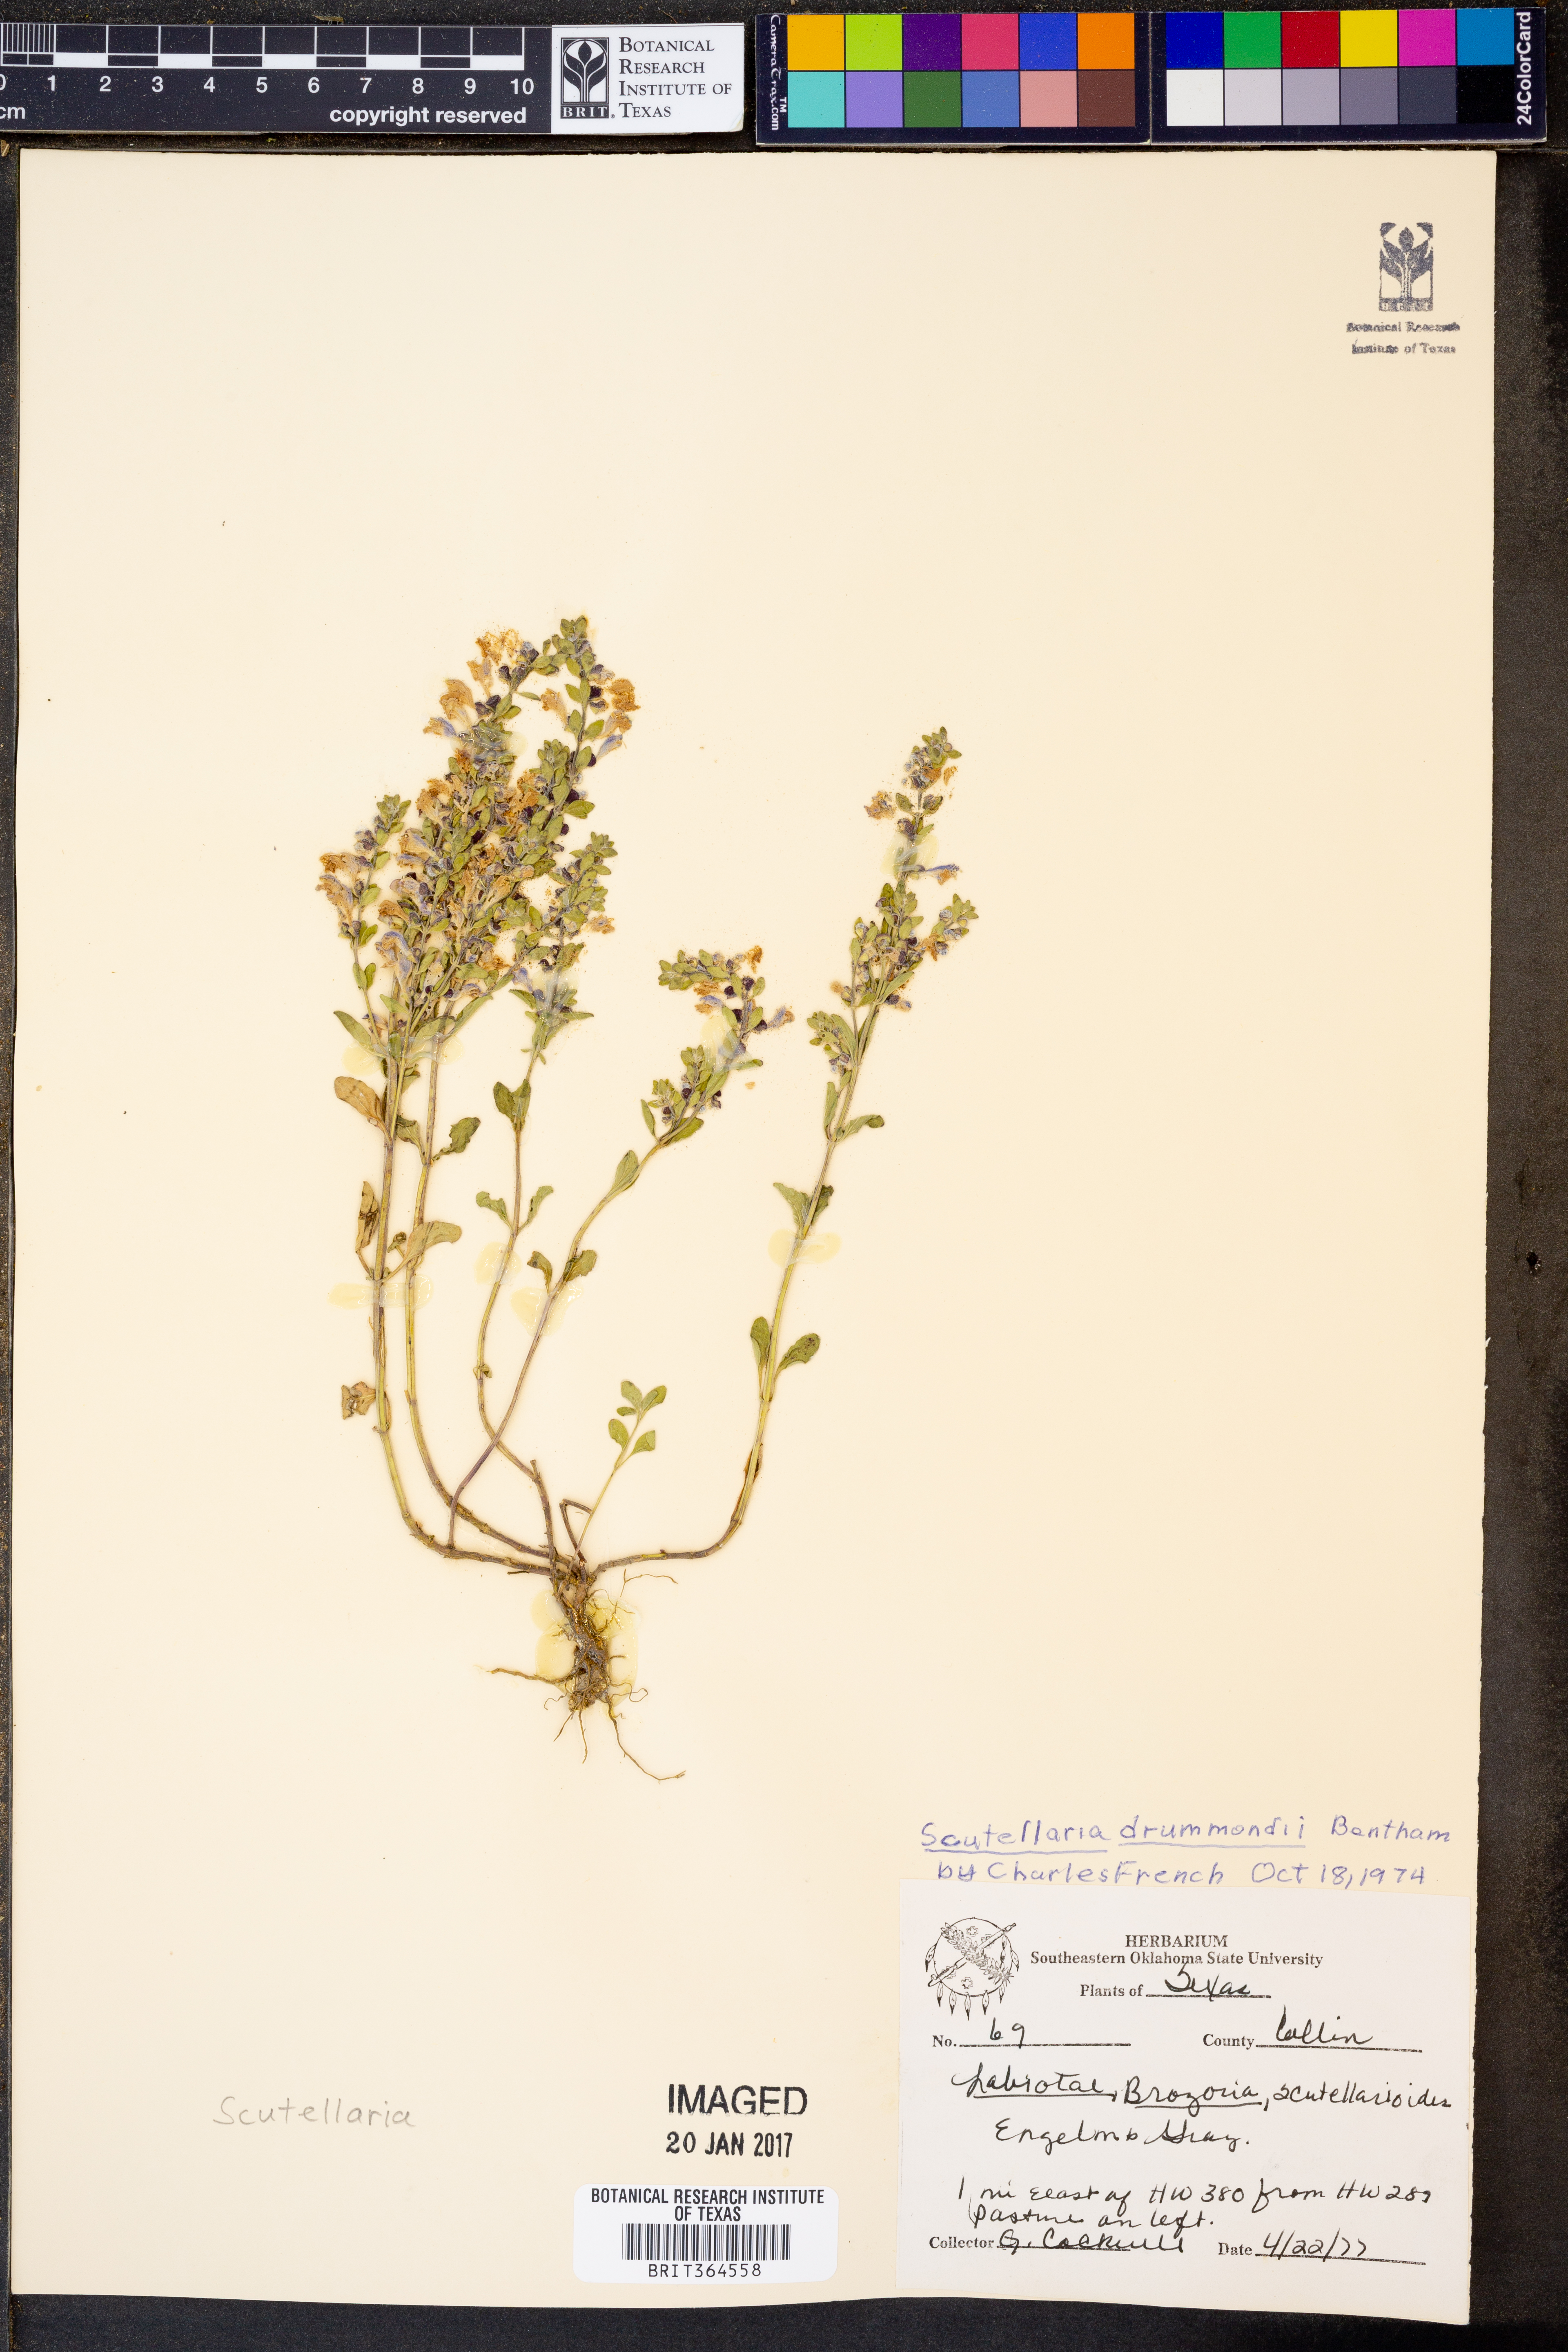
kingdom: Plantae
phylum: Tracheophyta
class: Magnoliopsida
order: Lamiales
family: Lamiaceae
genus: Scutellaria
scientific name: Scutellaria drummondii
